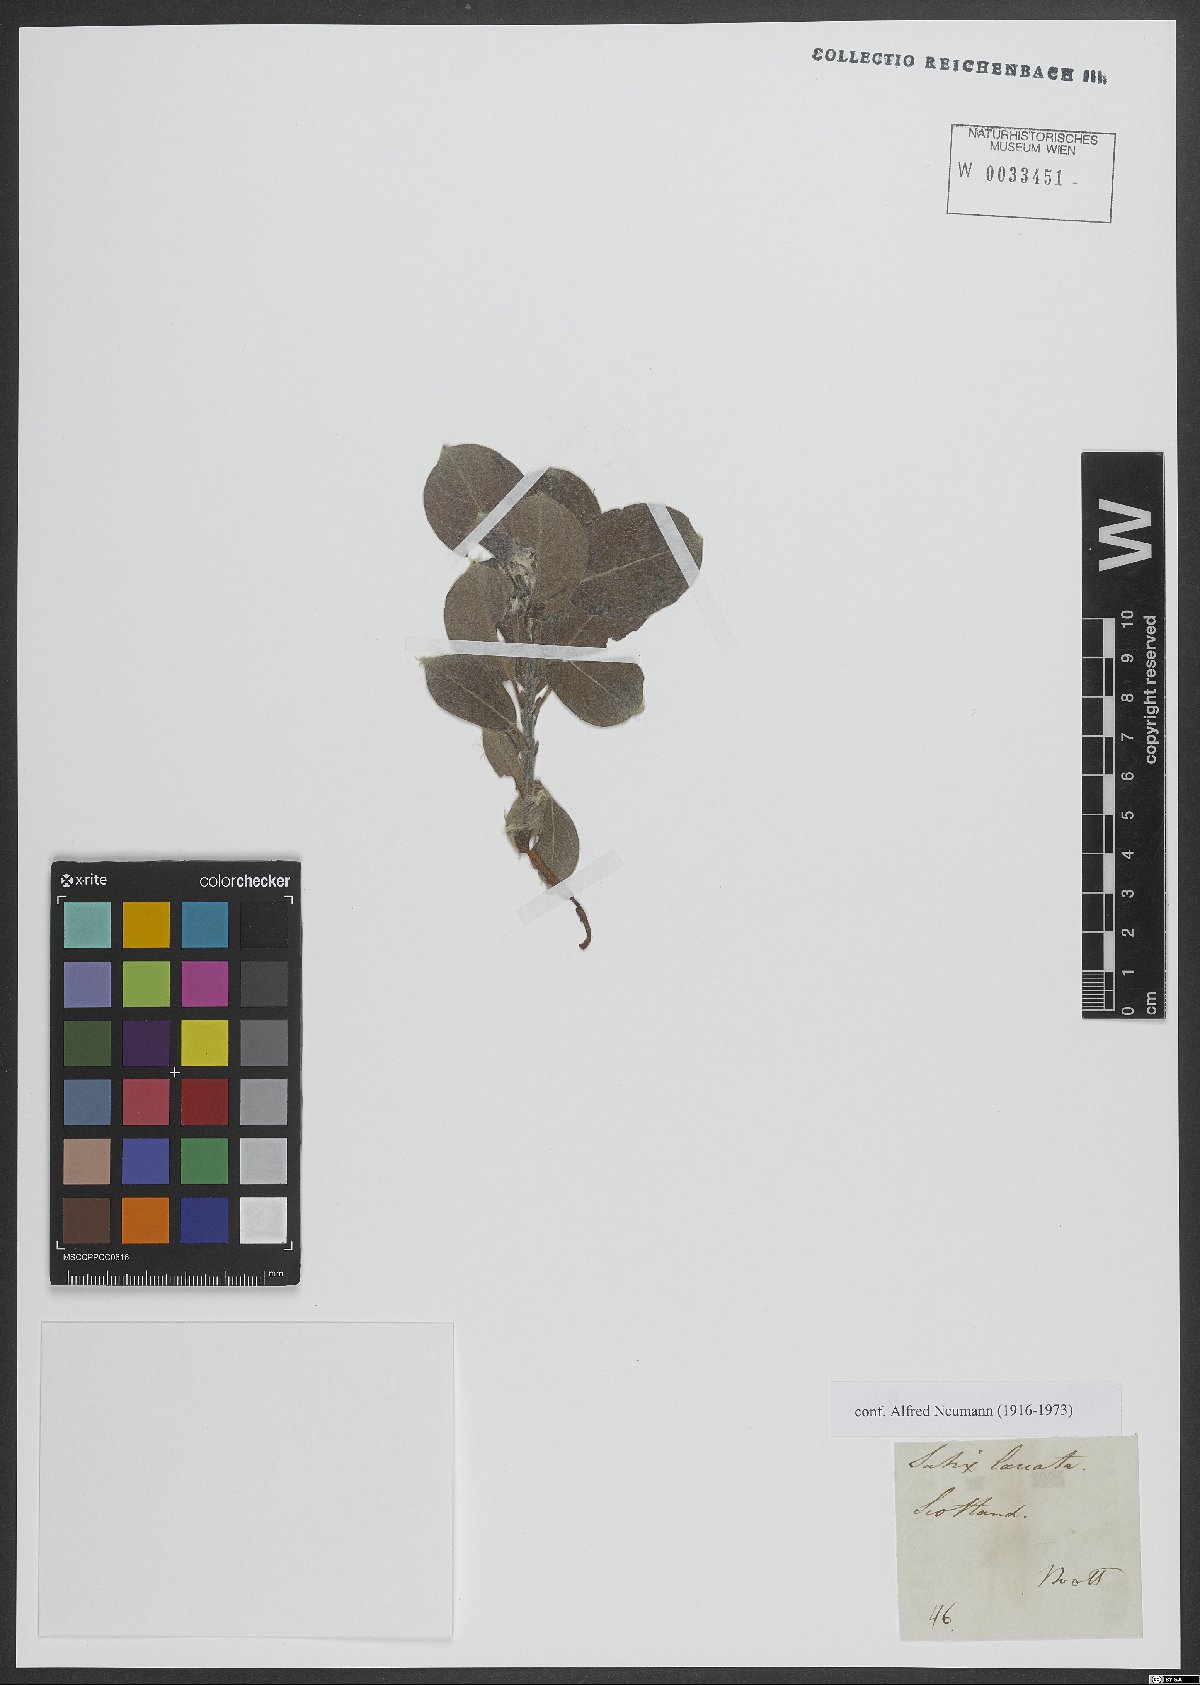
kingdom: Plantae
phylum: Tracheophyta
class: Magnoliopsida
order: Malpighiales
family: Salicaceae
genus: Salix
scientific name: Salix lanata
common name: Woolly willow
